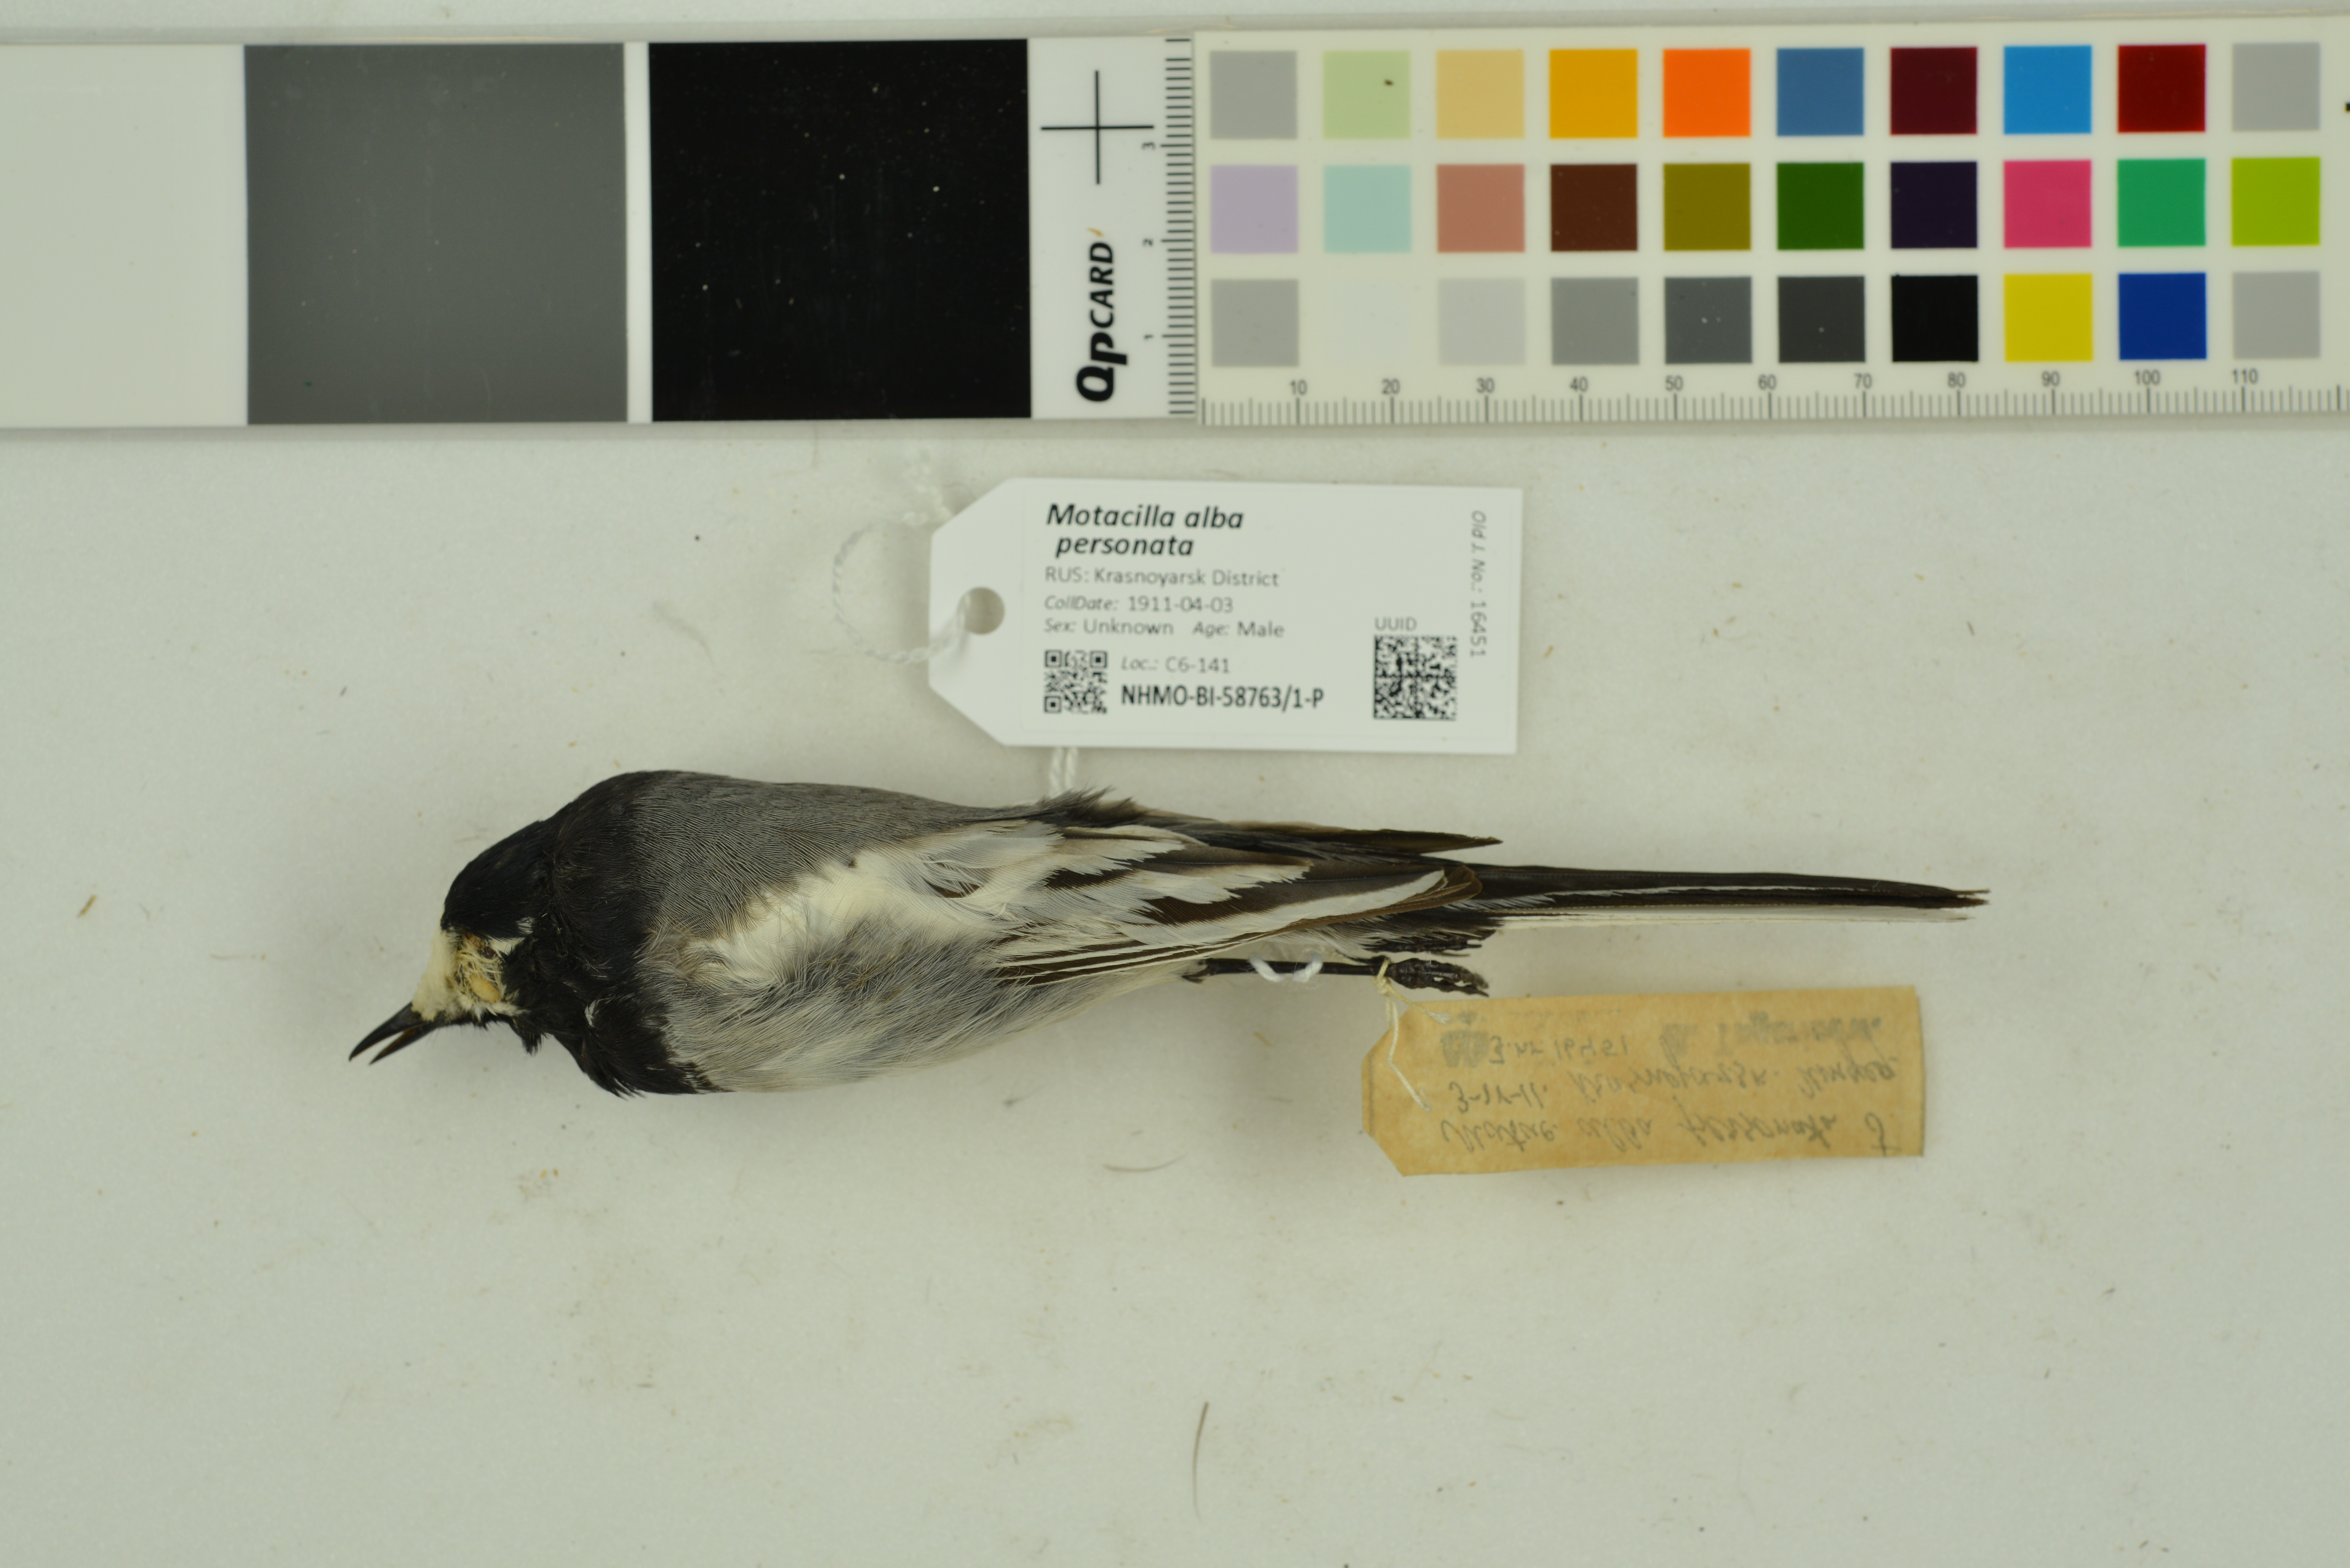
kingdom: Animalia
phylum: Chordata
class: Aves
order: Passeriformes
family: Motacillidae
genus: Motacilla
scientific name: Motacilla alba
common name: White wagtail
